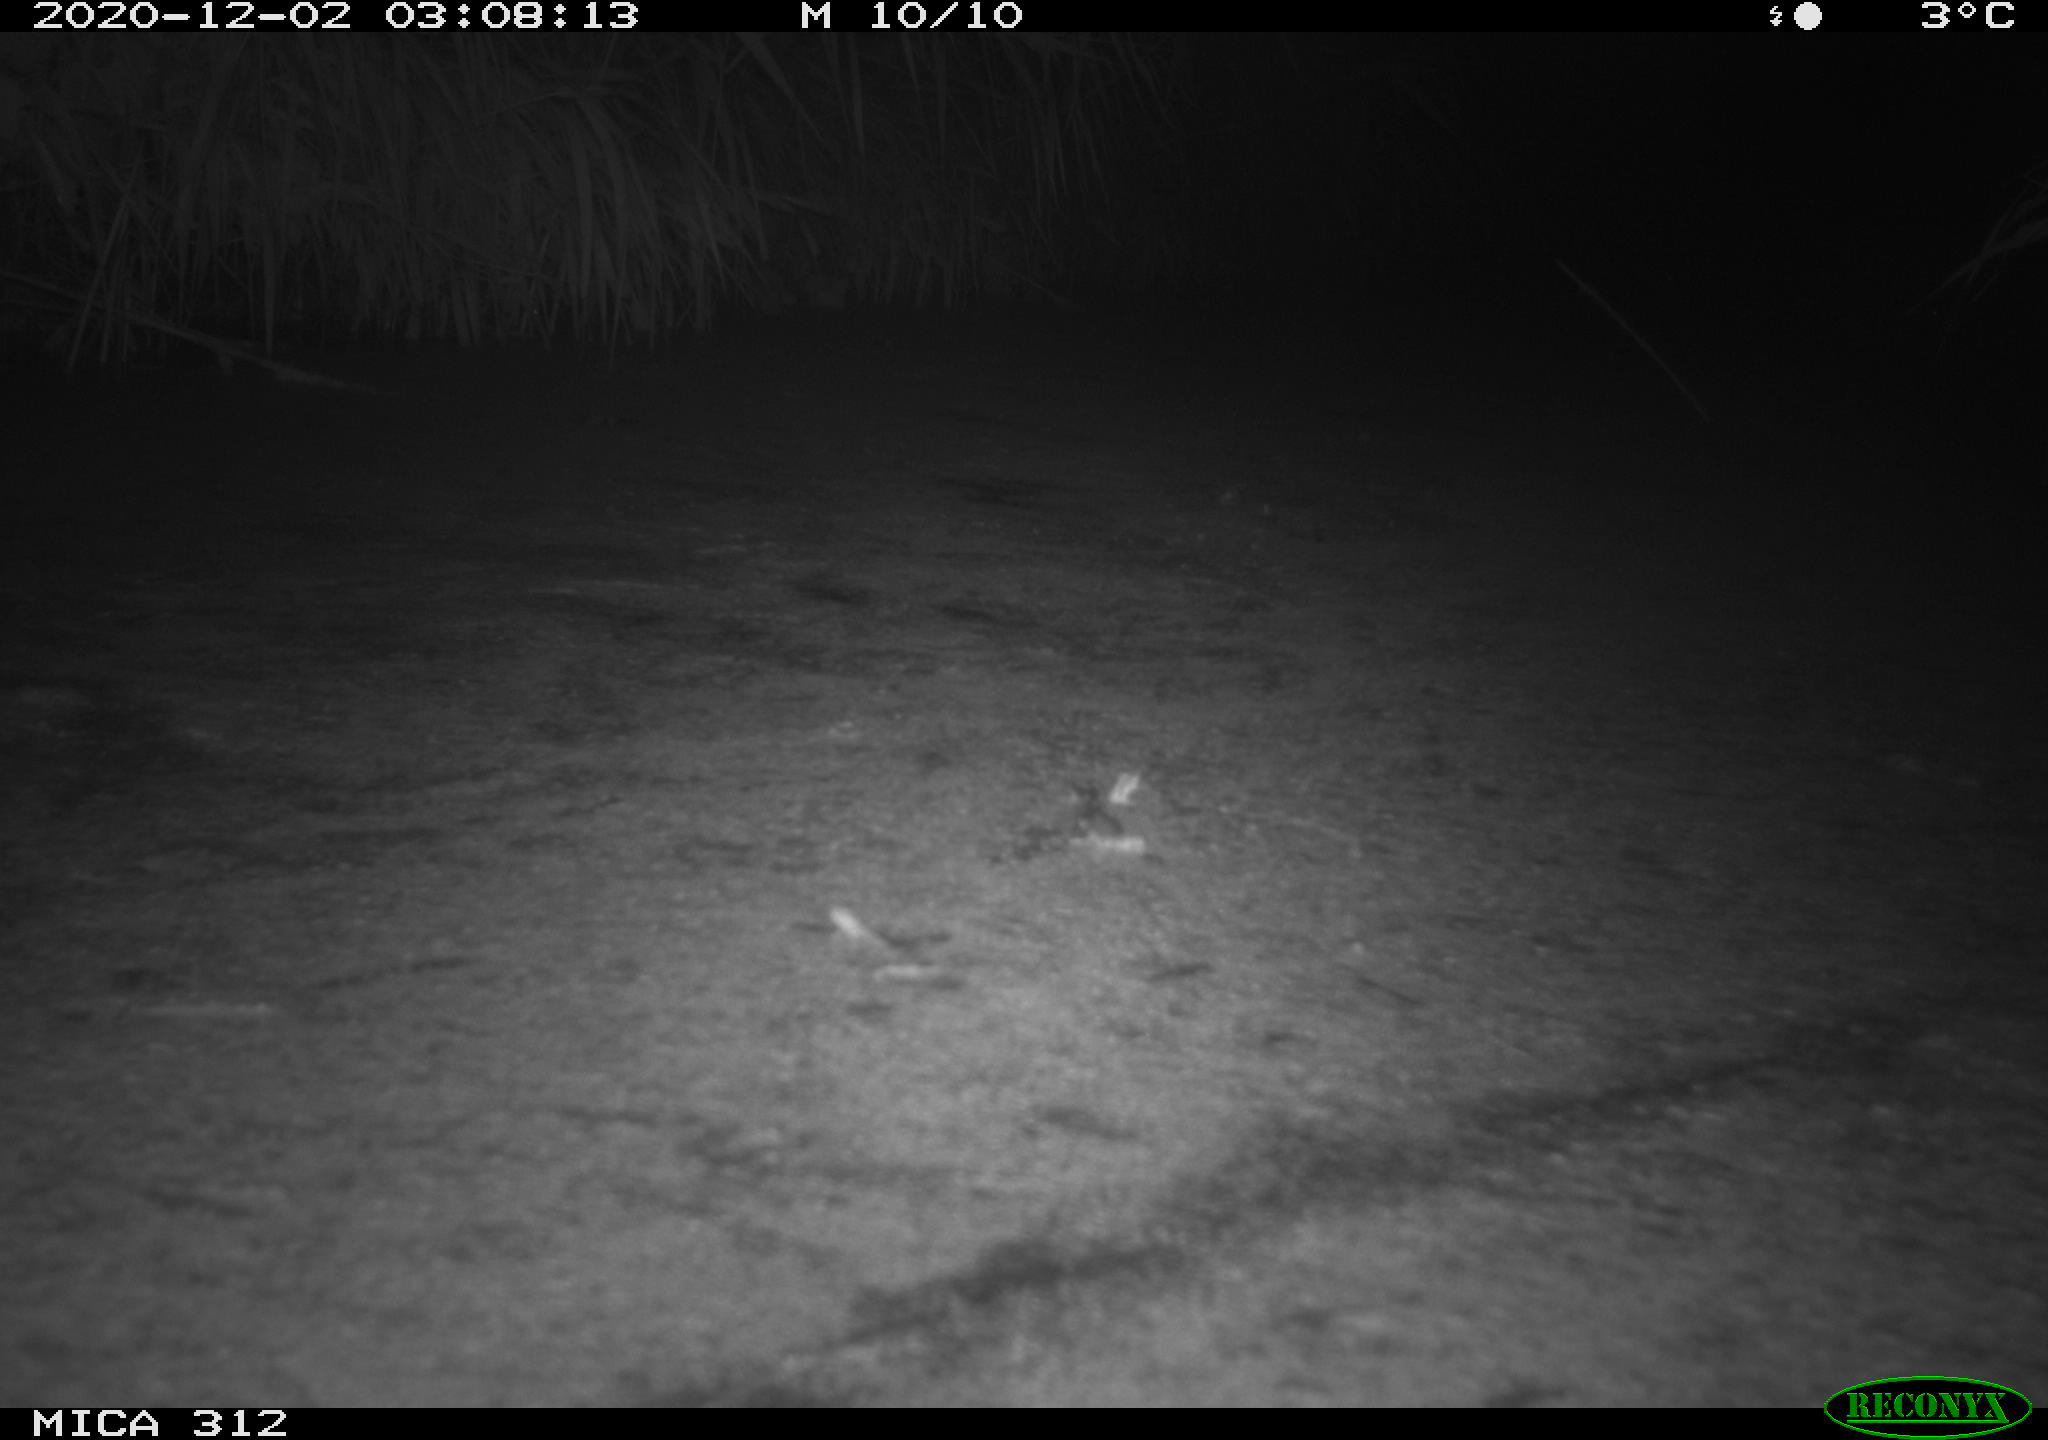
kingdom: Animalia
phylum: Chordata
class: Mammalia
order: Rodentia
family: Muridae
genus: Rattus
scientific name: Rattus norvegicus
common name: Brown rat
